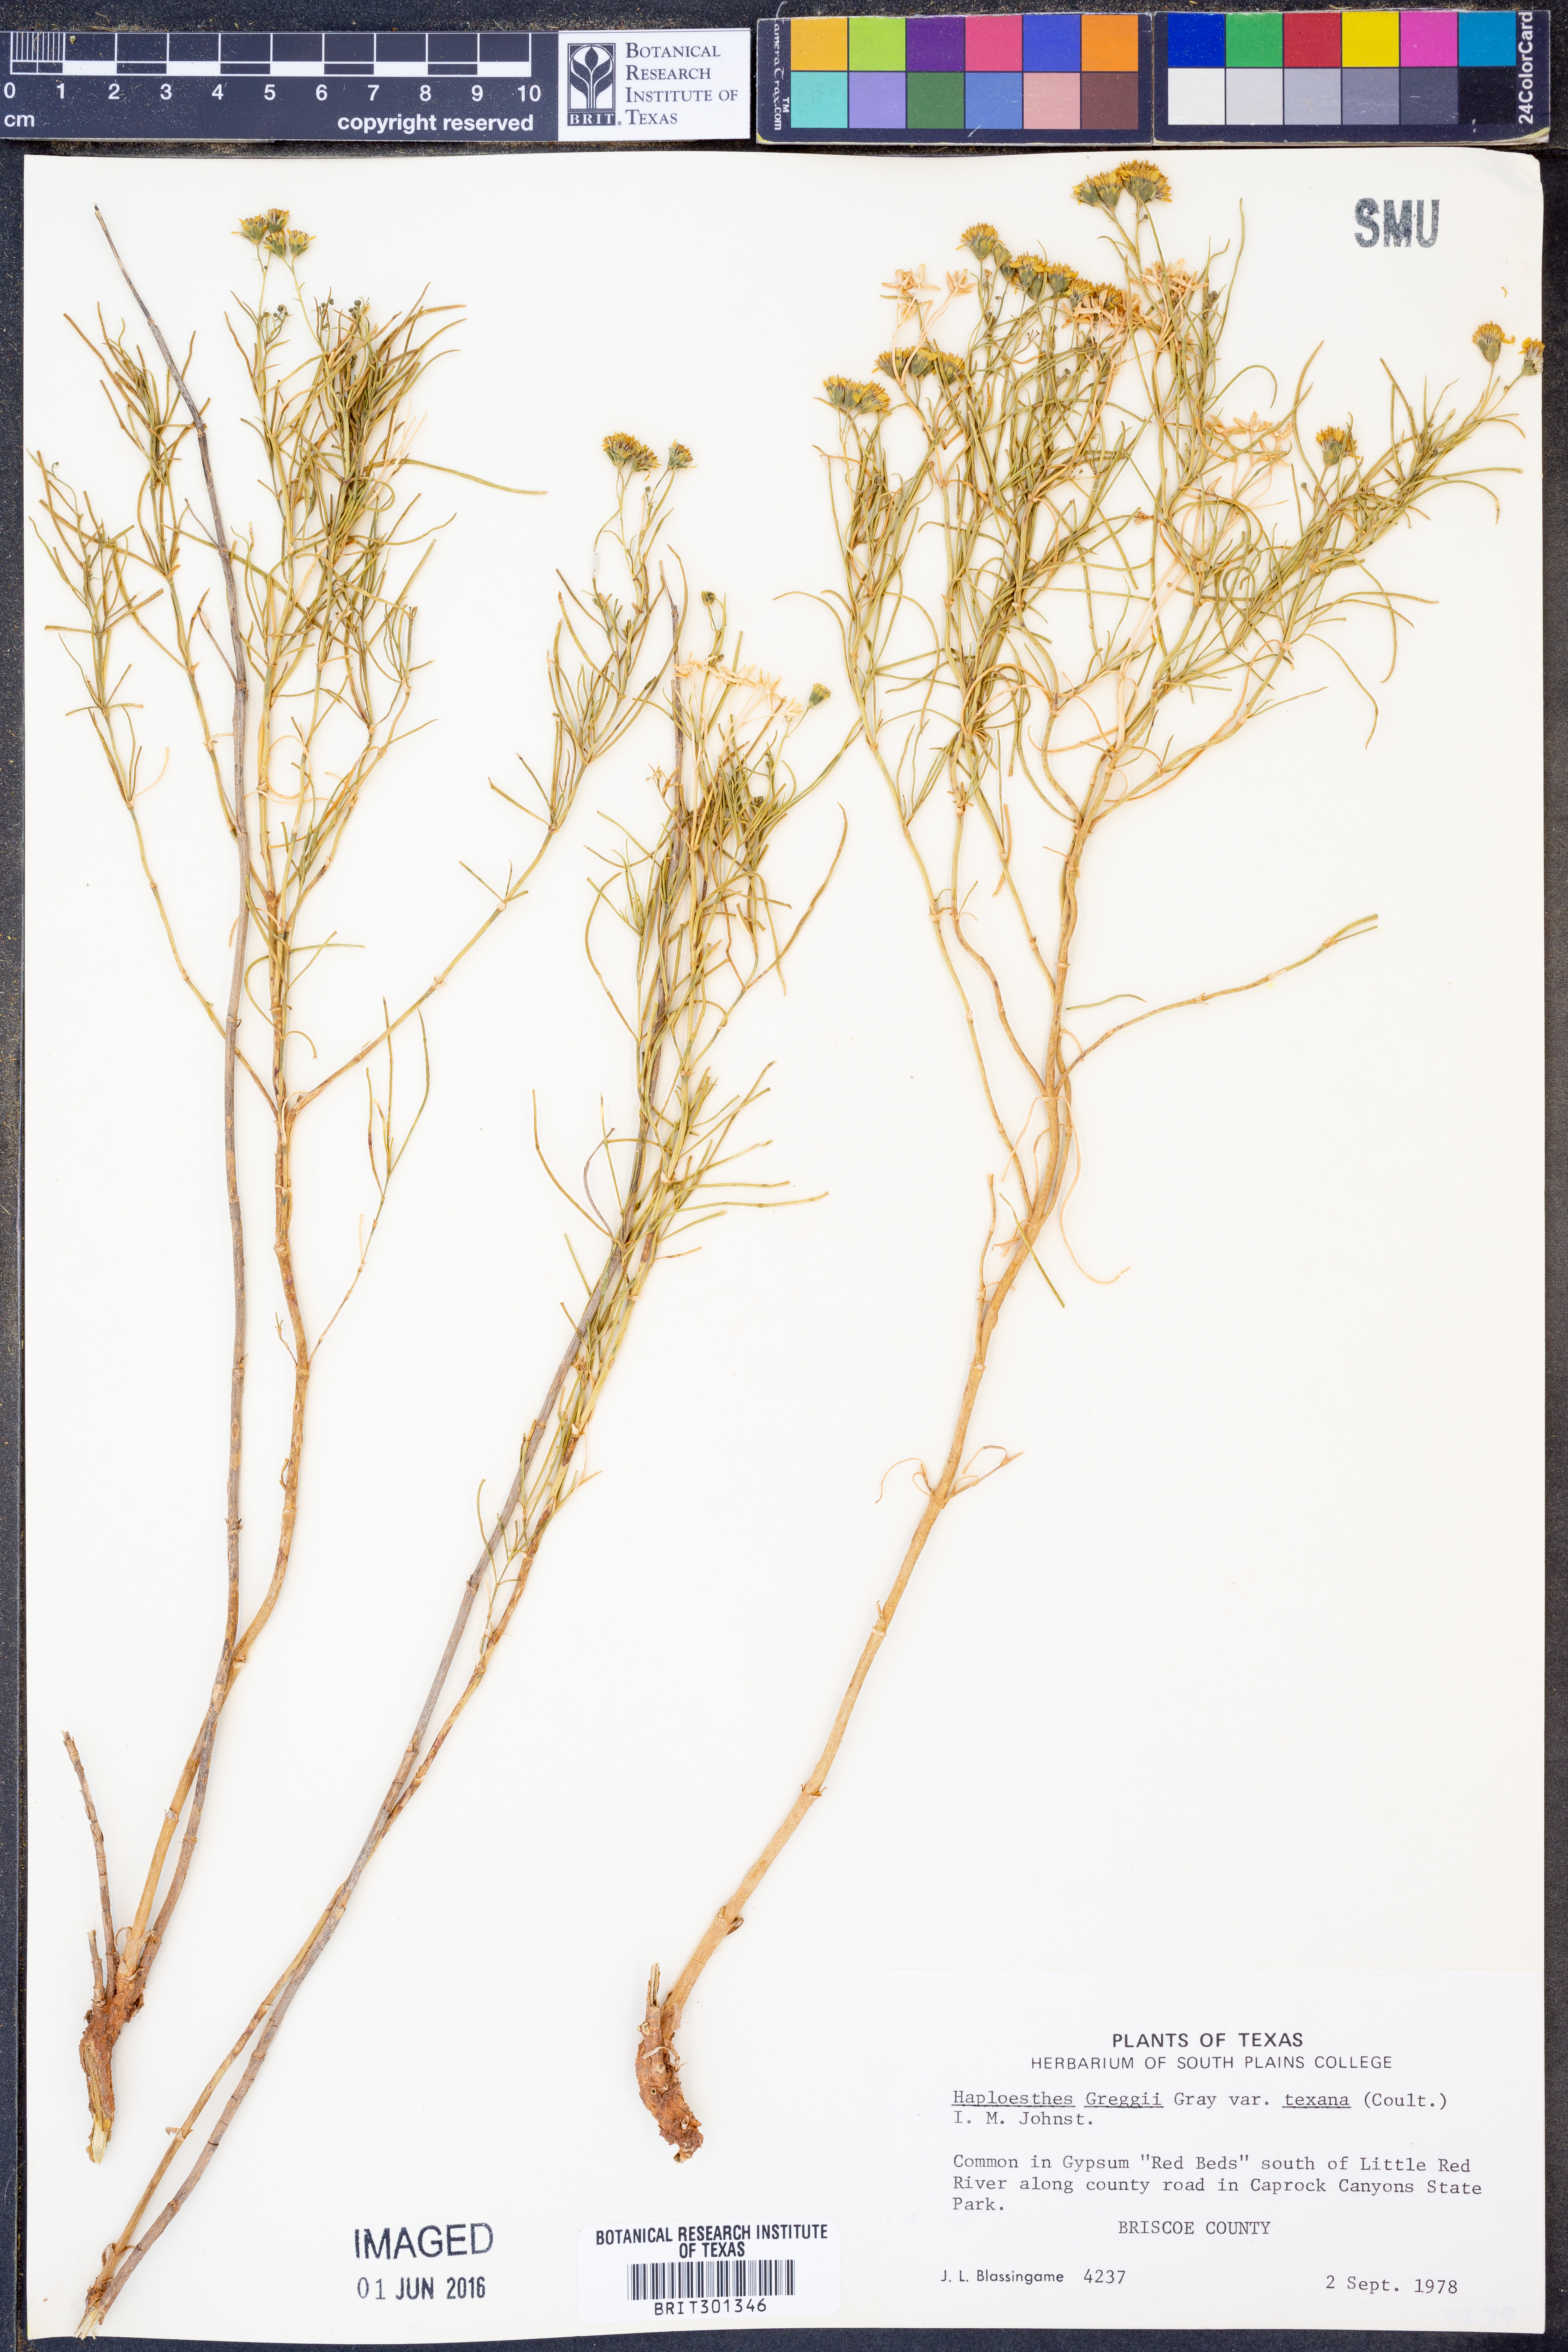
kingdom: Plantae
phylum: Tracheophyta
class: Magnoliopsida
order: Asterales
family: Asteraceae
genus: Haploesthes
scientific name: Haploesthes greggii
